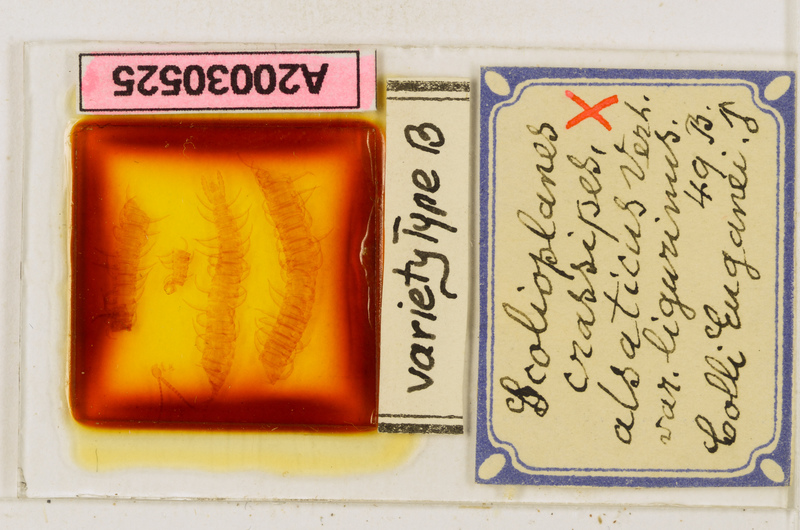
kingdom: Animalia
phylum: Arthropoda
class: Chilopoda
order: Geophilomorpha
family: Linotaeniidae
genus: Strigamia
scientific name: Strigamia crassipes
